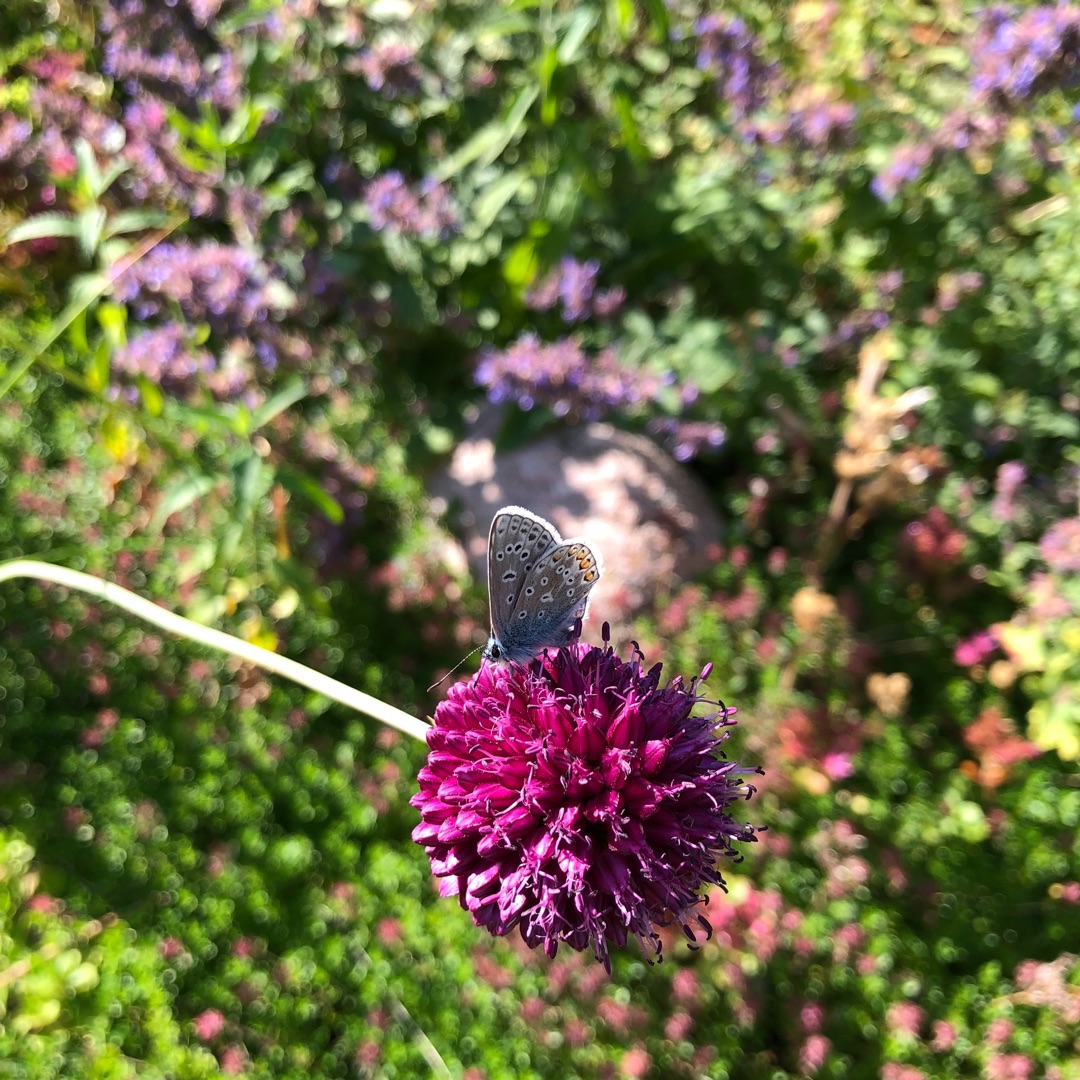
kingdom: Animalia
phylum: Arthropoda
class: Insecta
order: Lepidoptera
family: Lycaenidae
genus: Polyommatus
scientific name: Polyommatus icarus
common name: Almindelig blåfugl
